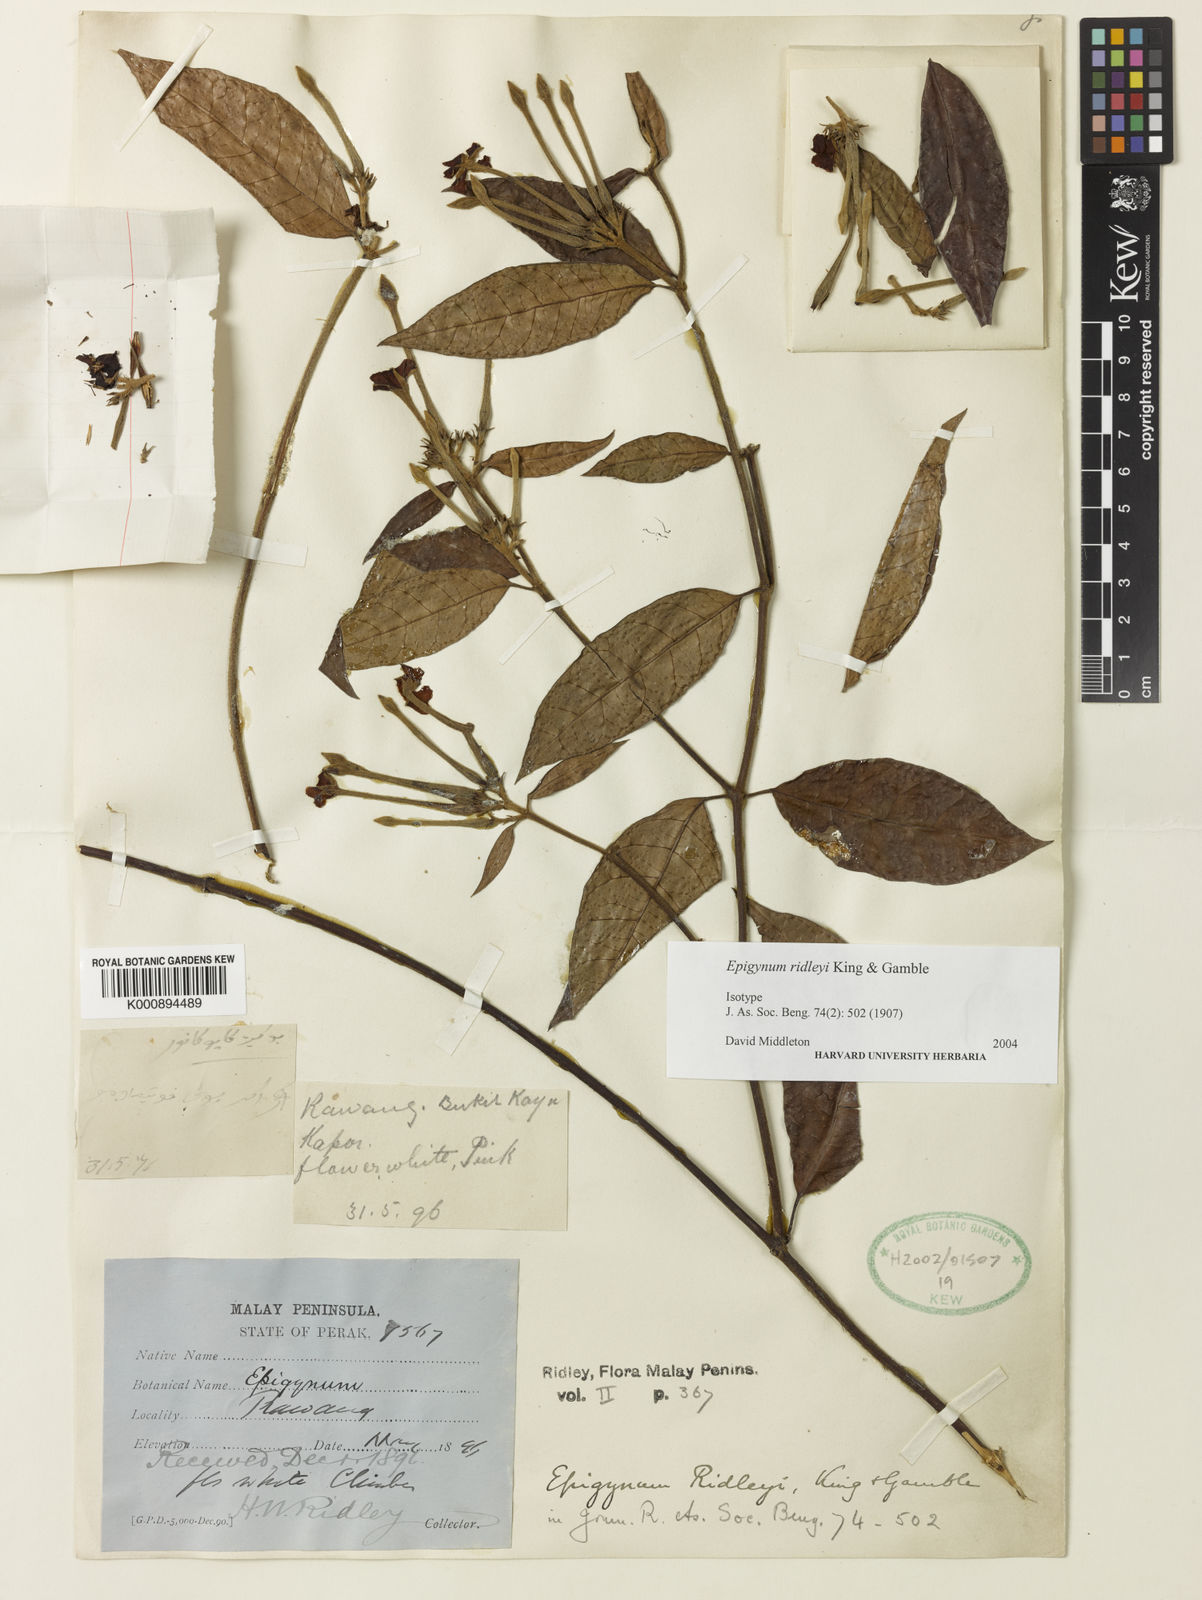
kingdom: Plantae
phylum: Tracheophyta
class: Magnoliopsida
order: Gentianales
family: Apocynaceae
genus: Epigynum
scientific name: Epigynum ridleyi
